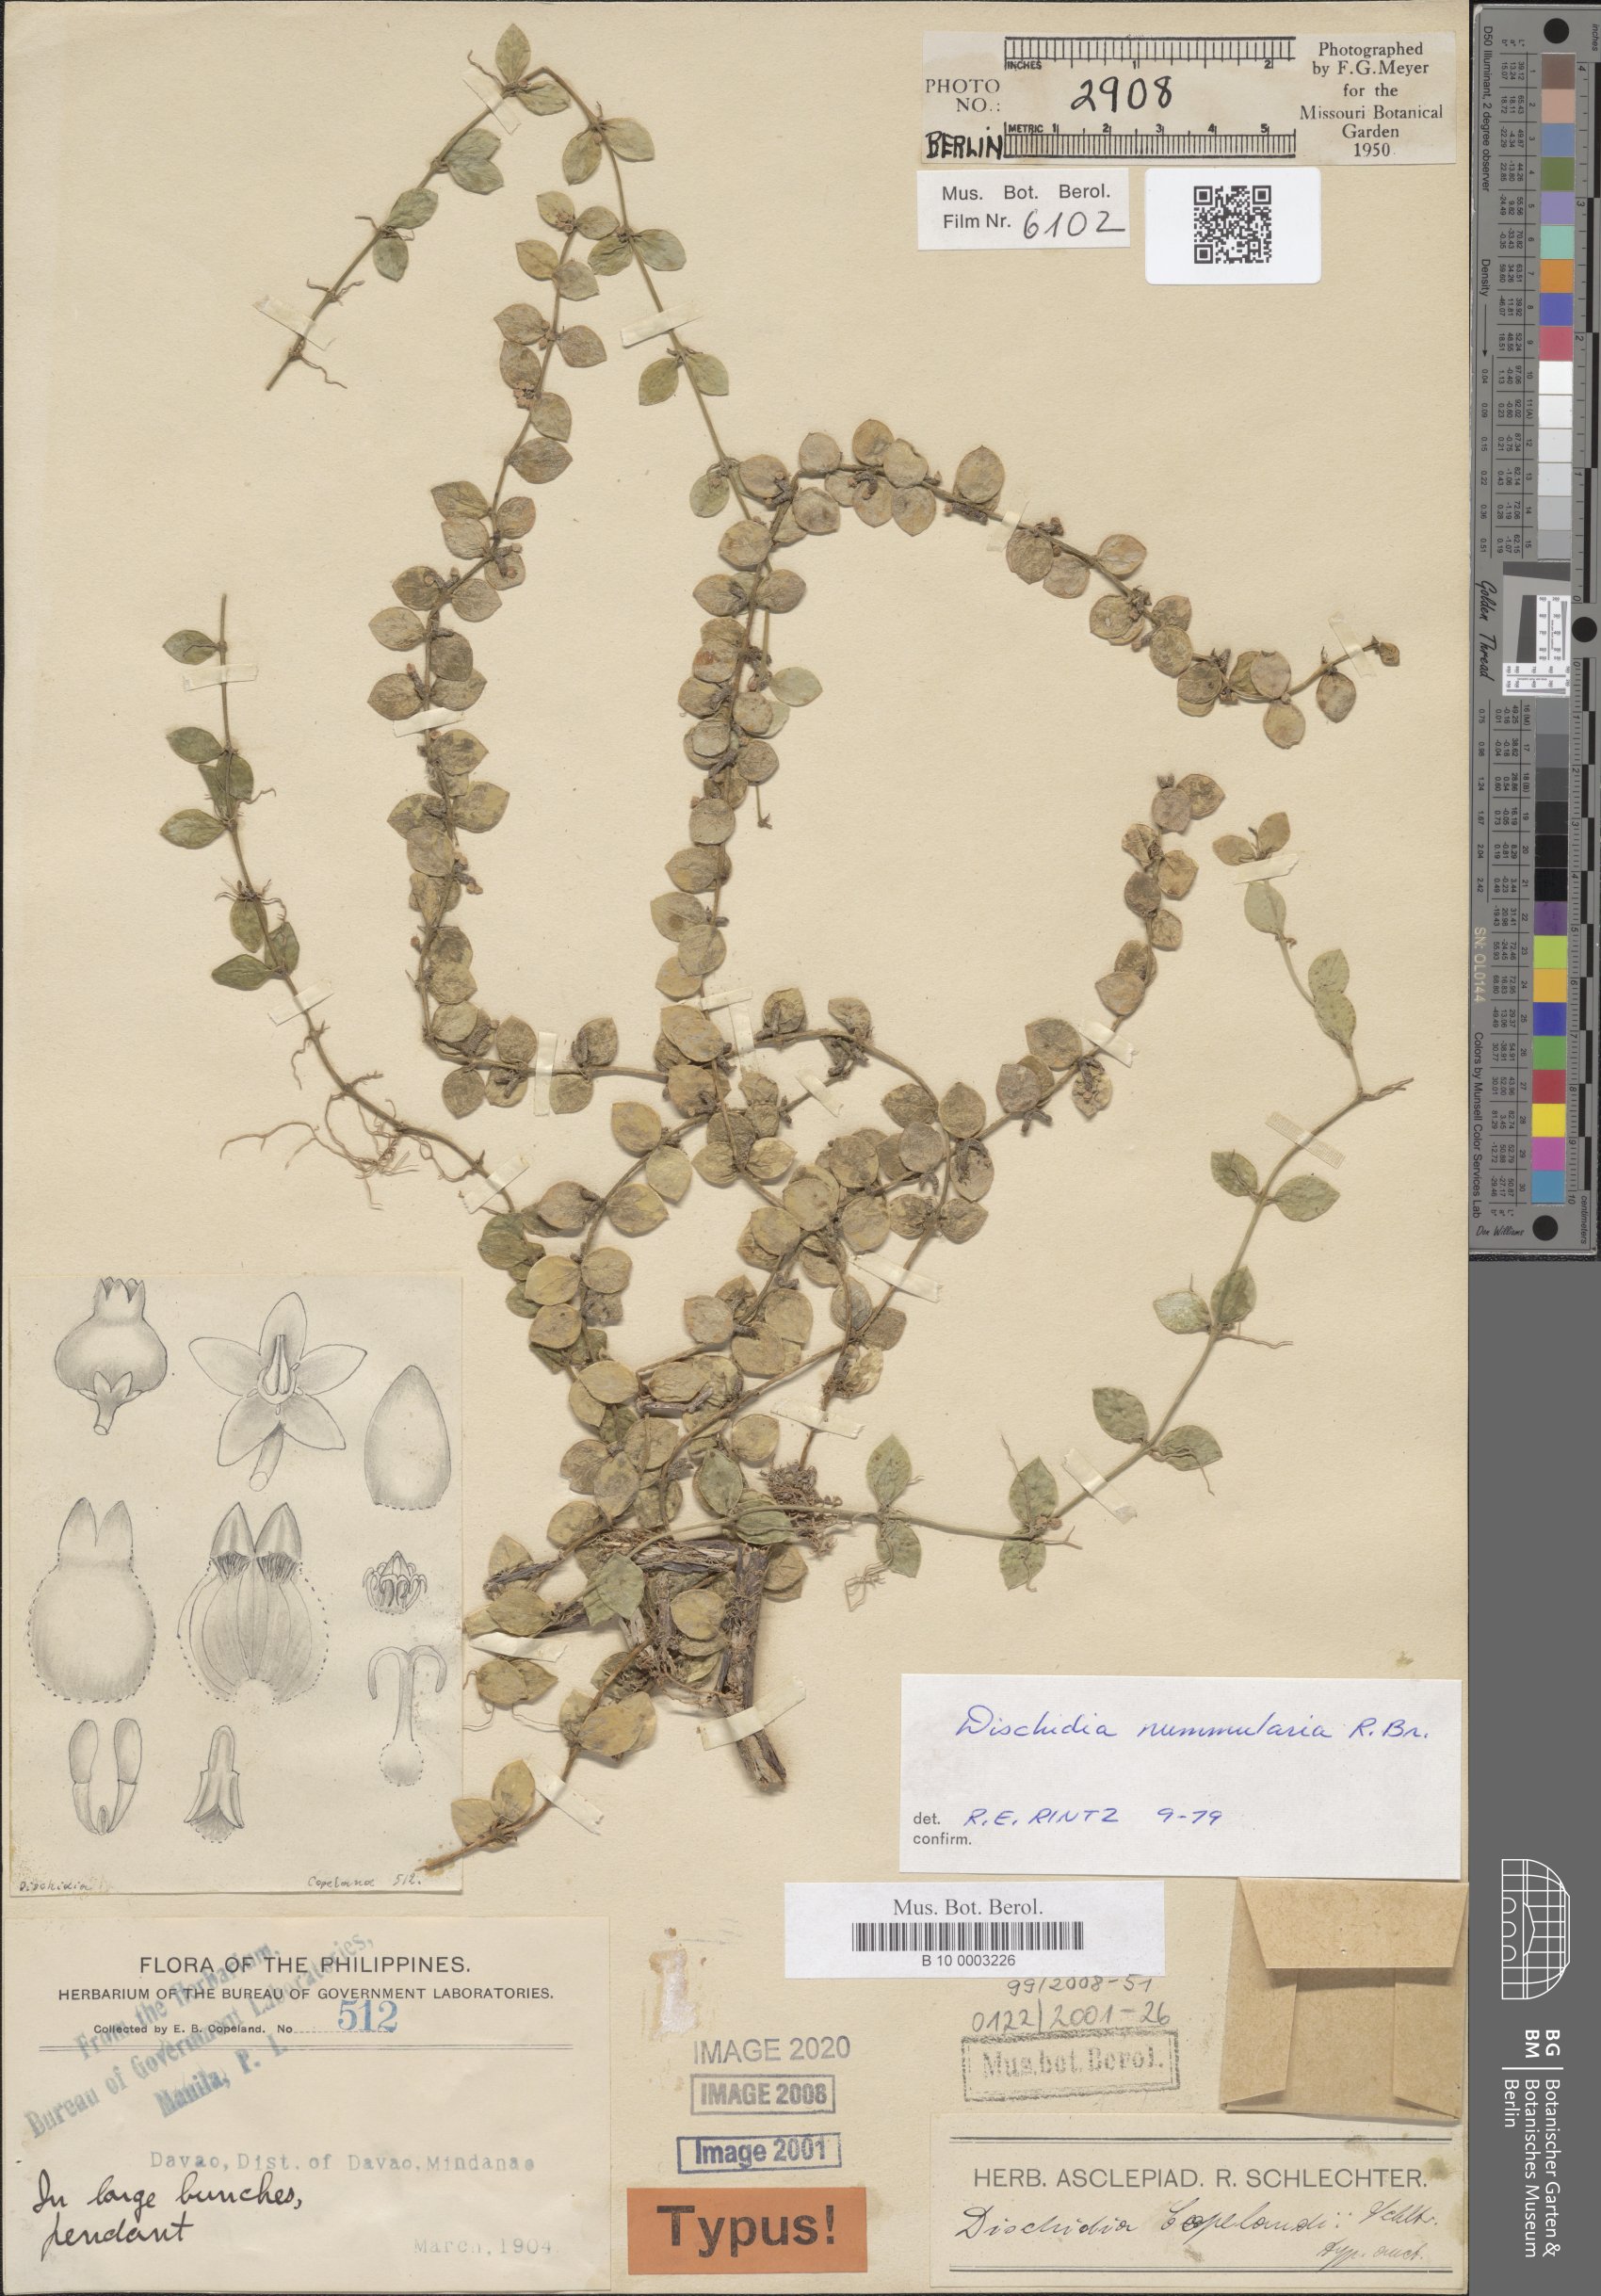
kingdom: Plantae
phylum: Tracheophyta
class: Magnoliopsida
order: Gentianales
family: Apocynaceae
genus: Dischidia
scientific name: Dischidia nummularia
